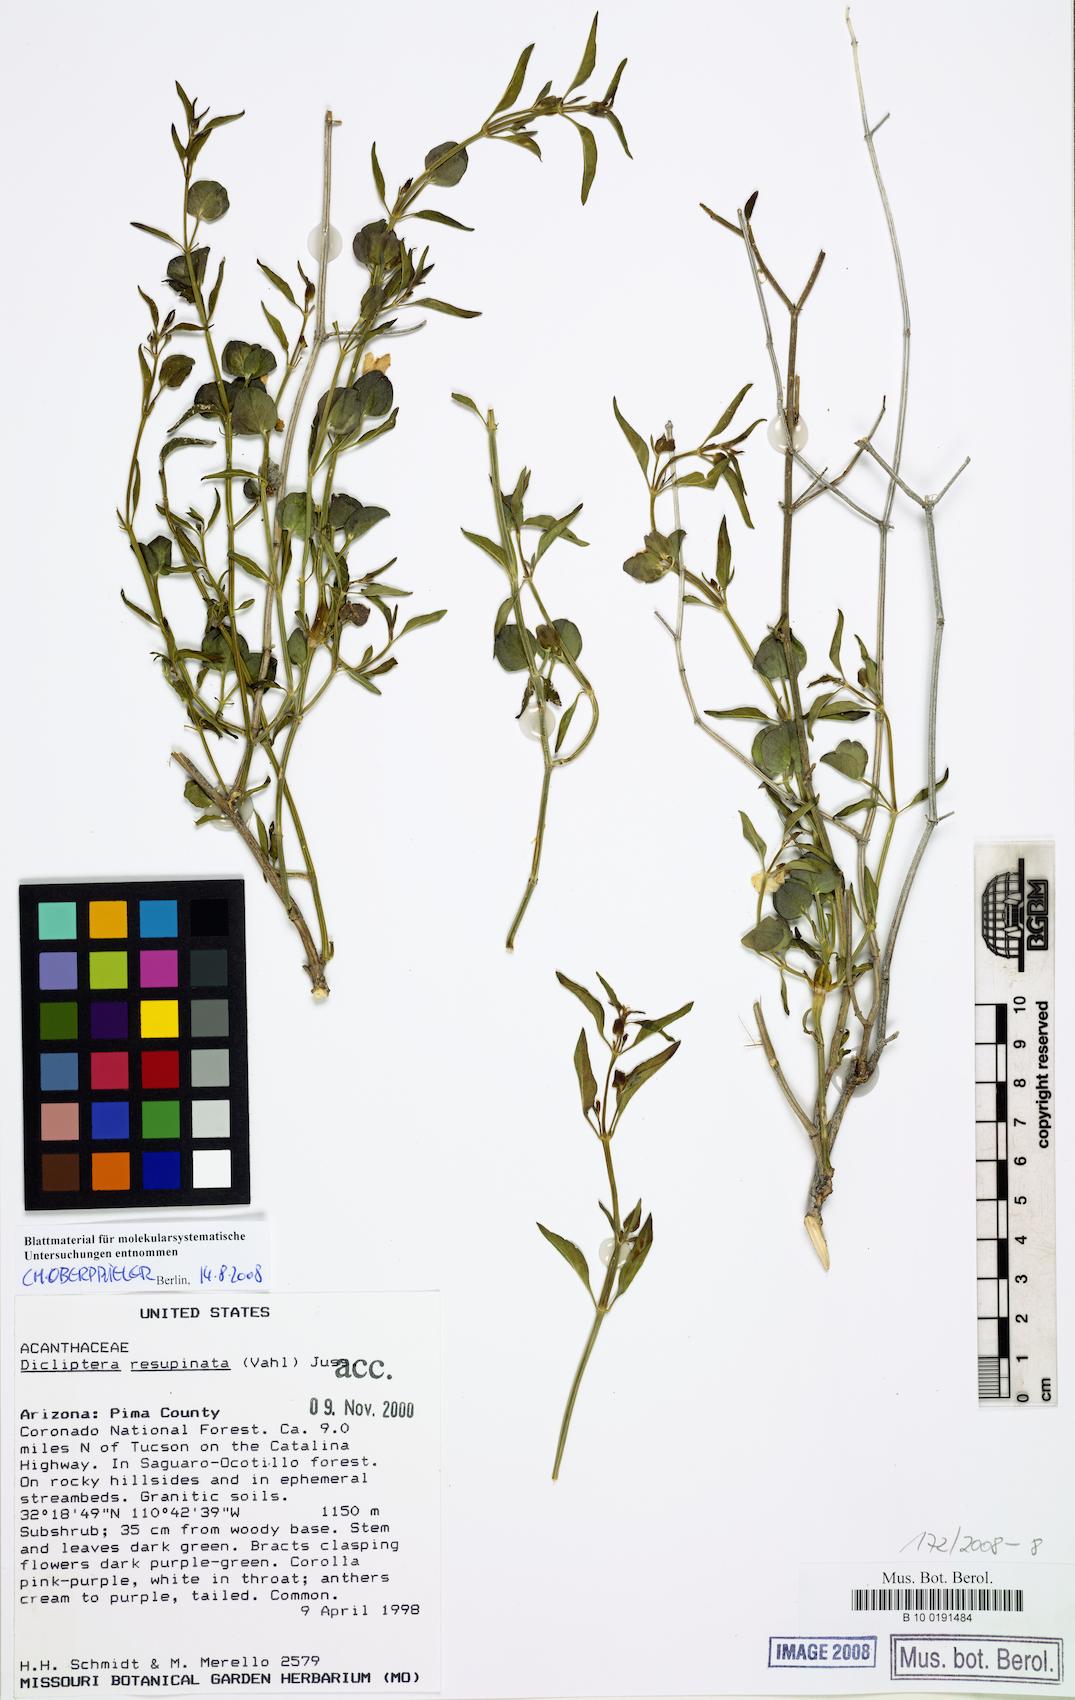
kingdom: Plantae
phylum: Tracheophyta
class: Magnoliopsida
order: Lamiales
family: Acanthaceae
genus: Dicliptera
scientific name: Dicliptera resupinata
